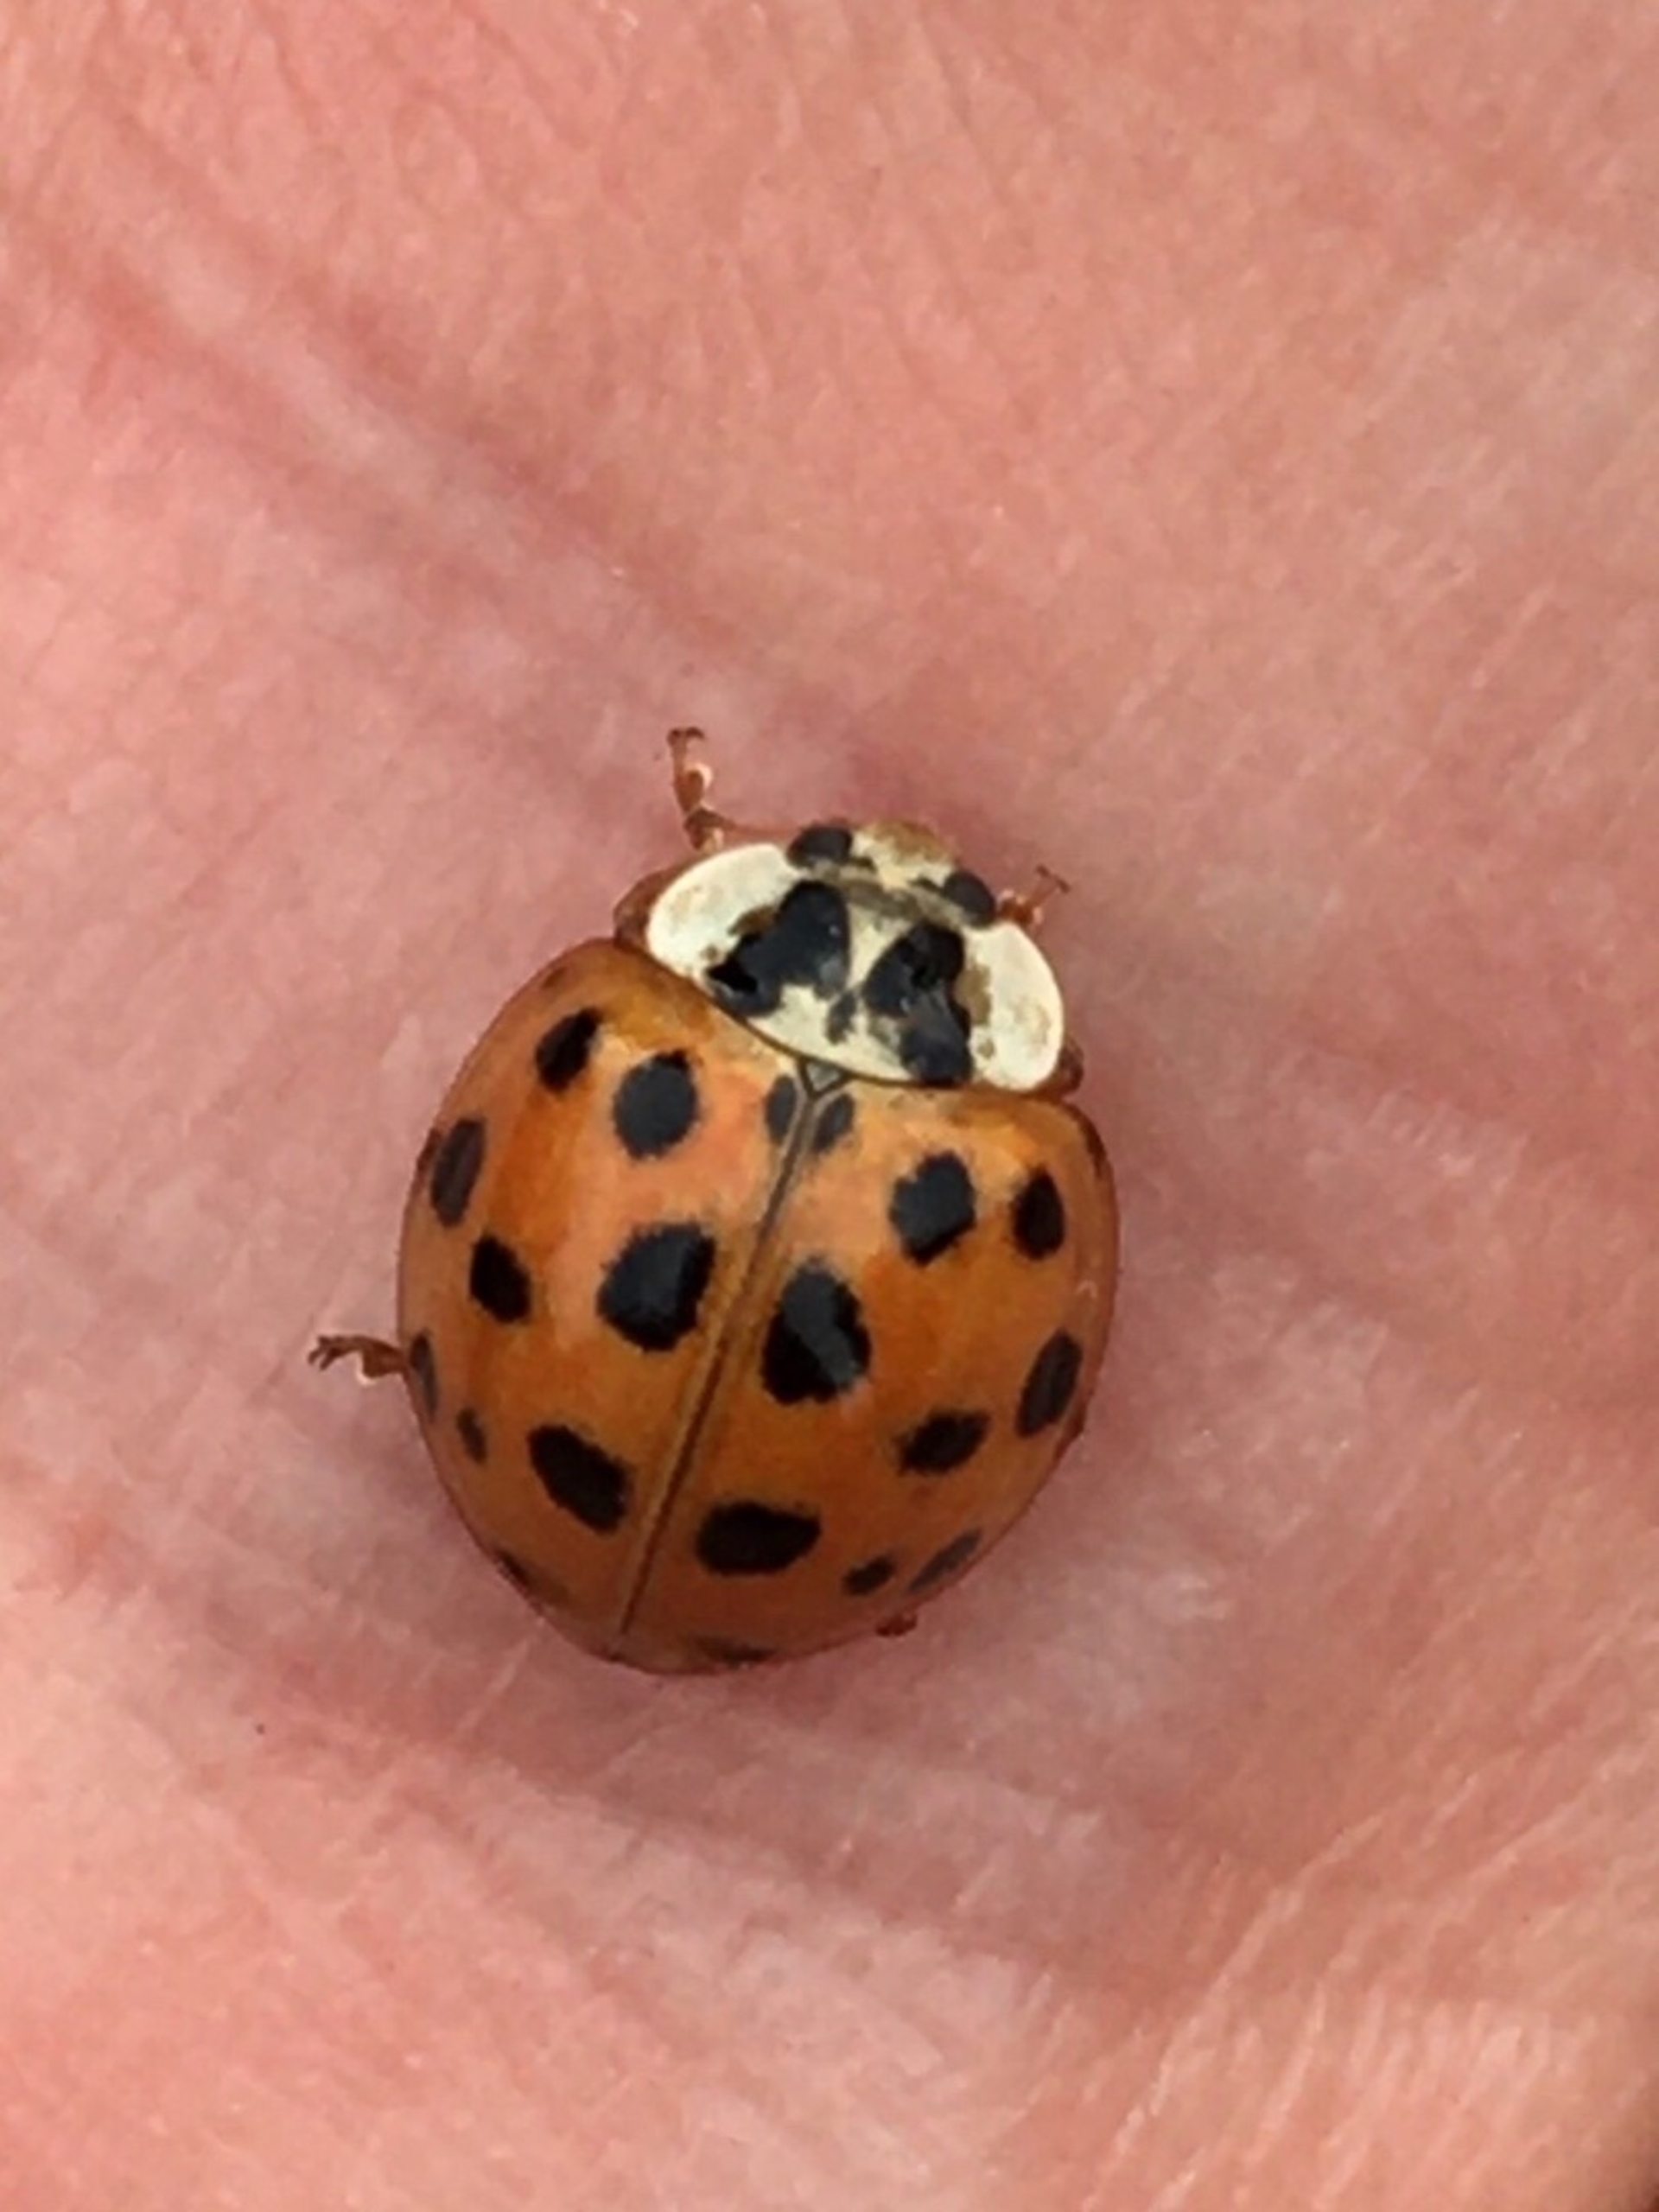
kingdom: Animalia
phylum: Arthropoda
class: Insecta
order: Coleoptera
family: Coccinellidae
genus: Harmonia
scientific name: Harmonia axyridis
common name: Harlekinmariehøne
